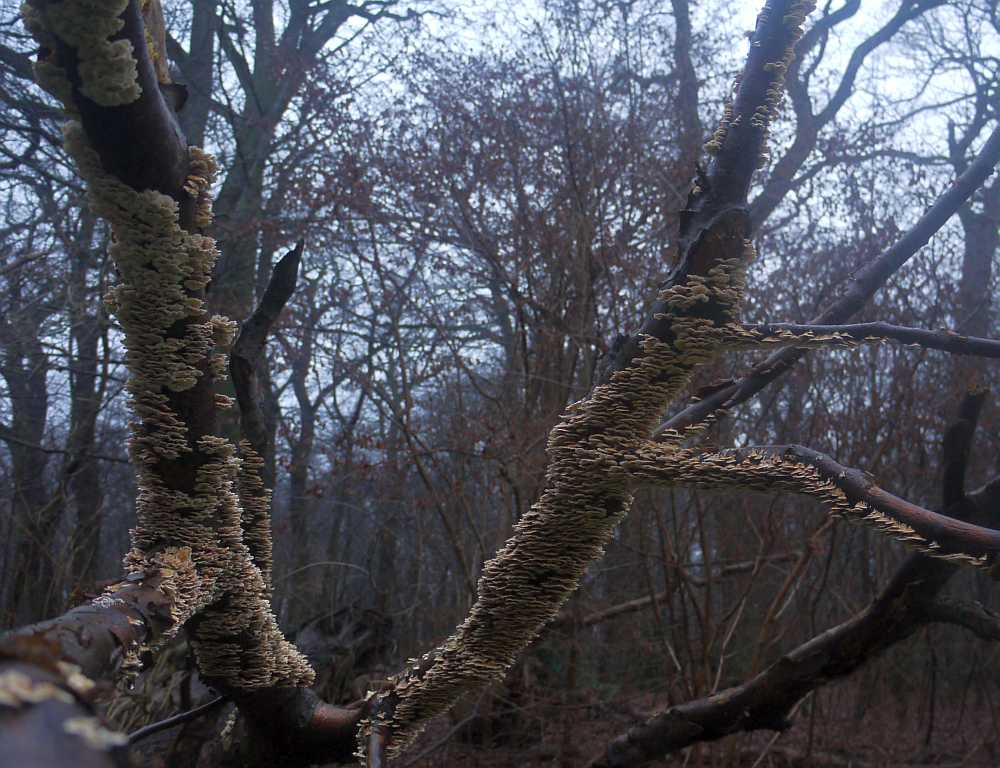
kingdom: Fungi
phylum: Basidiomycota
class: Agaricomycetes
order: Amylocorticiales
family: Amylocorticiaceae
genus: Plicaturopsis
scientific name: Plicaturopsis crispa
